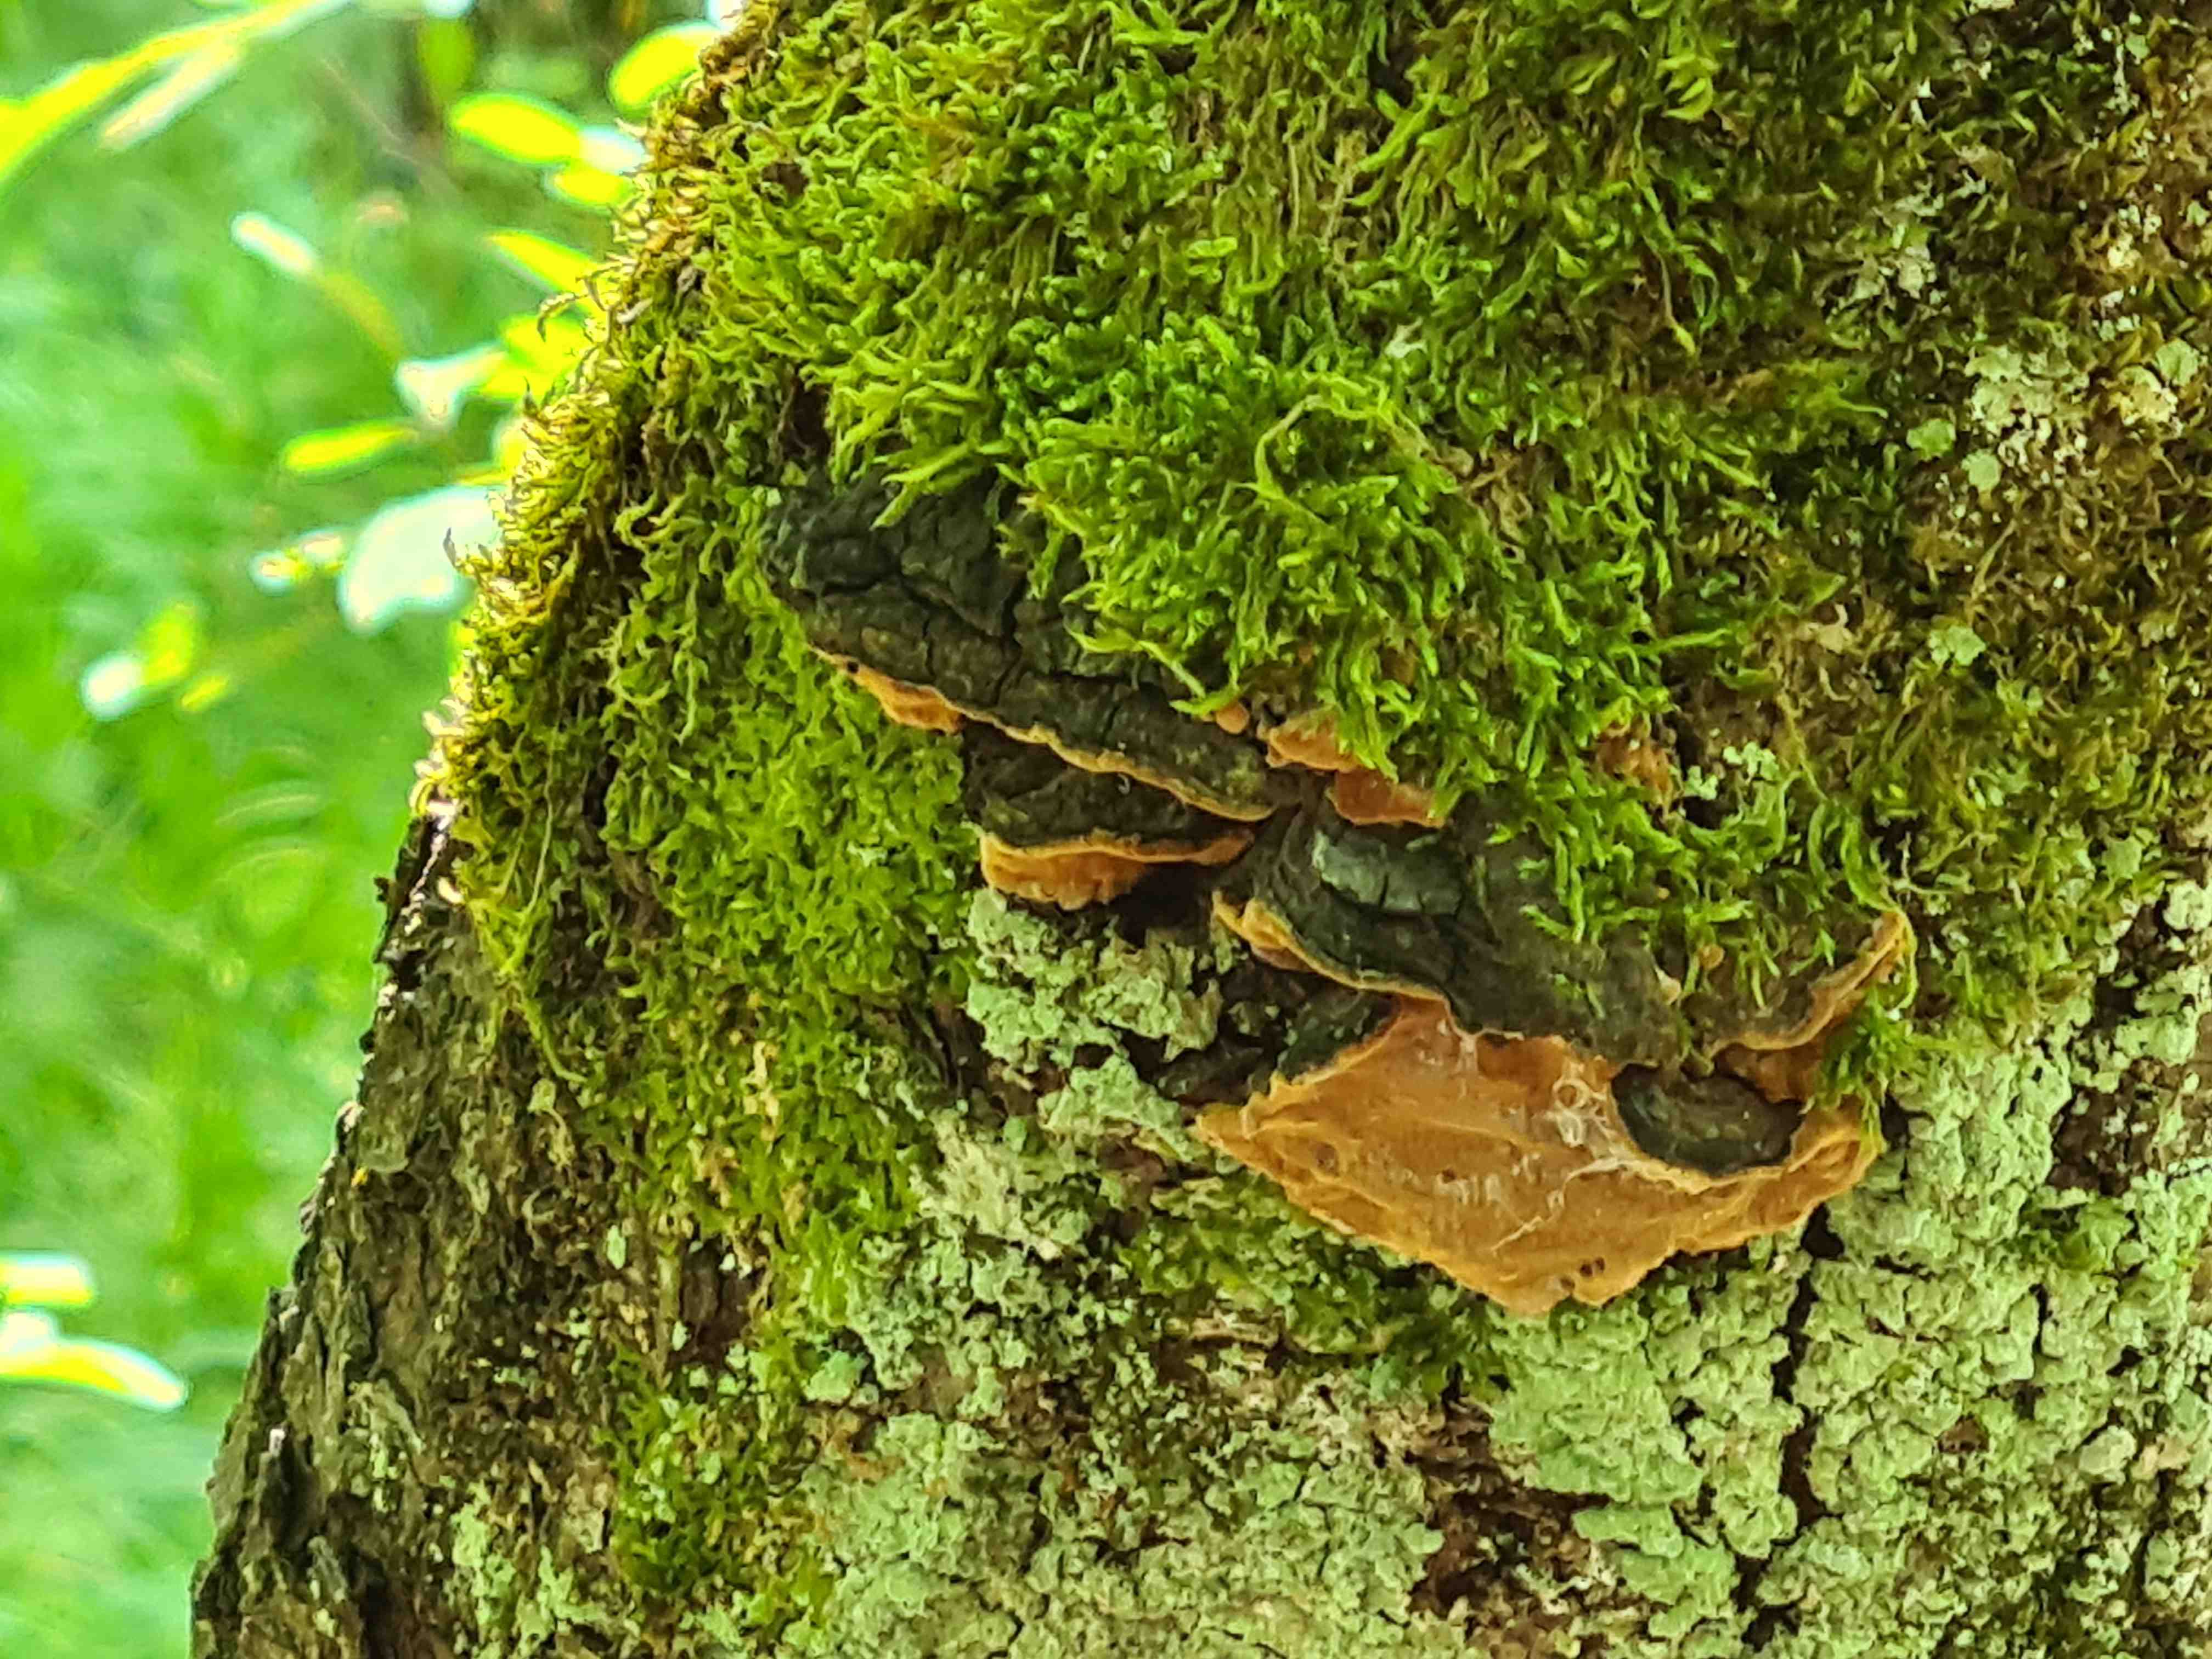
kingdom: Fungi
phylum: Basidiomycota
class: Agaricomycetes
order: Hymenochaetales
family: Hymenochaetaceae
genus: Phellinopsis
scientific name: Phellinopsis conchata
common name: pile-ildporesvamp
